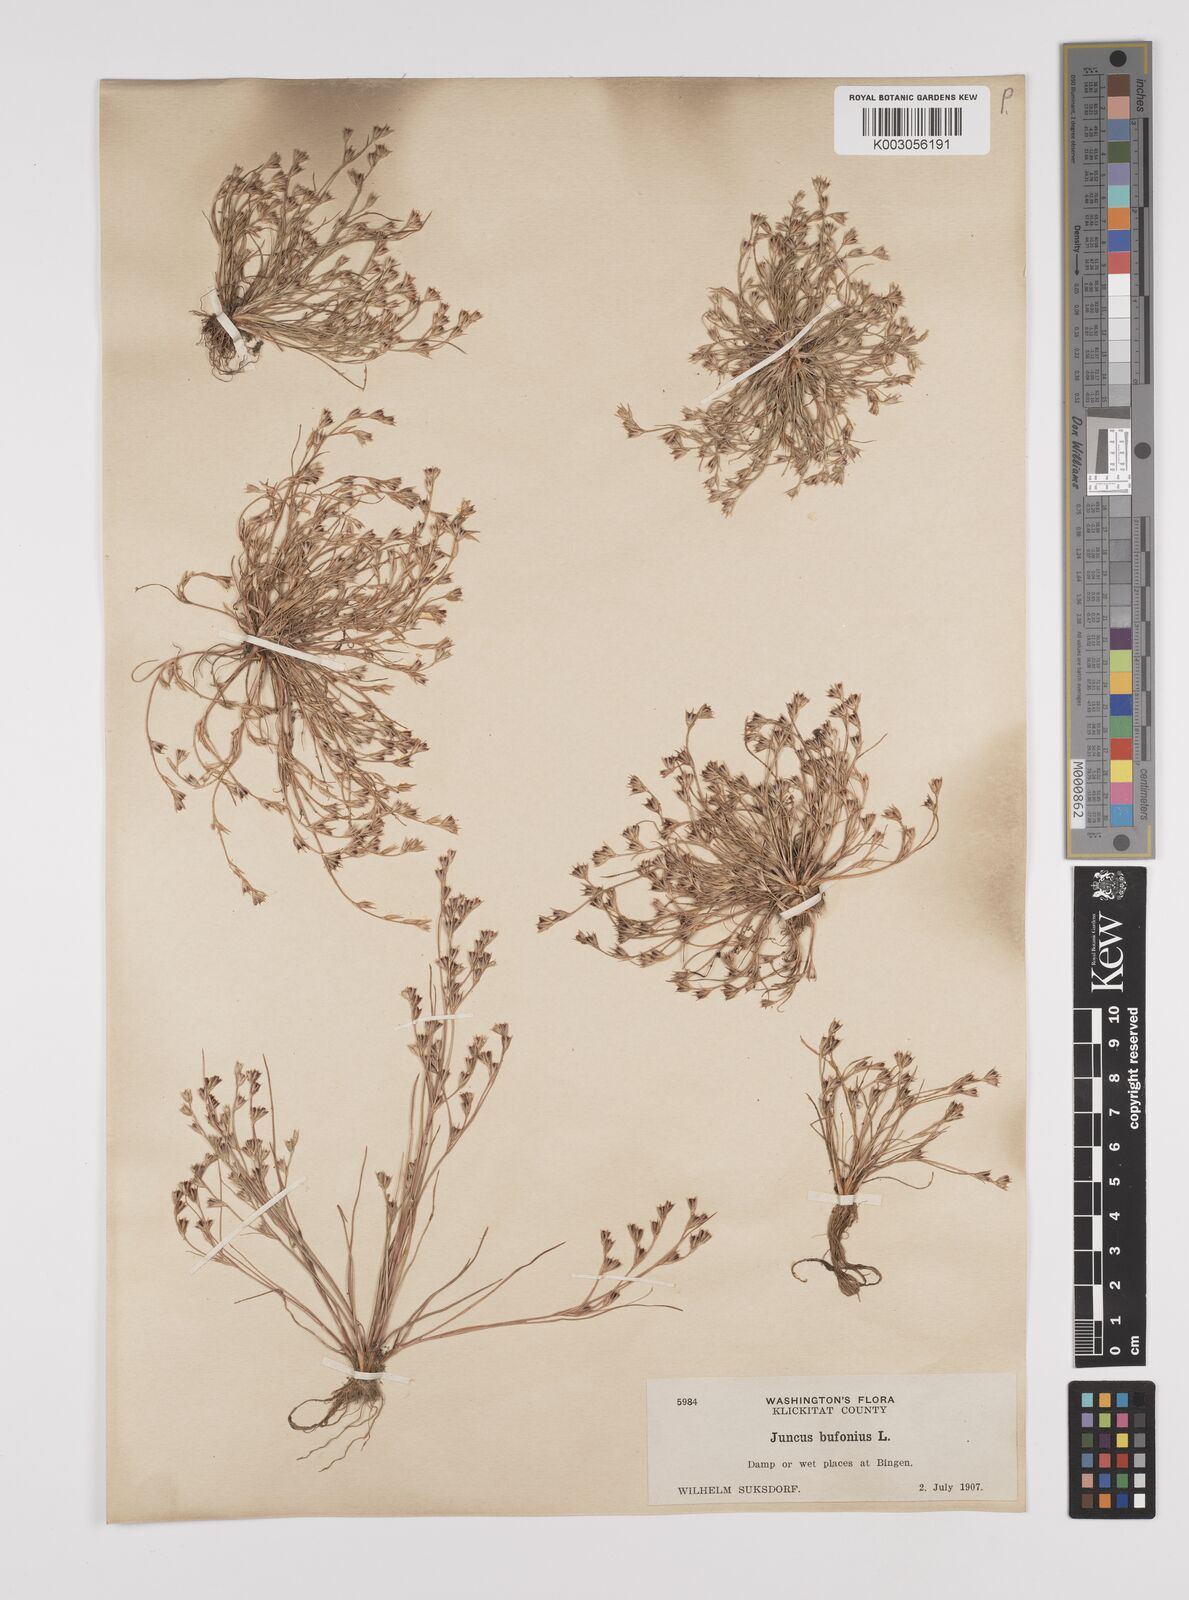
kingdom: Plantae
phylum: Tracheophyta
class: Liliopsida
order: Poales
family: Juncaceae
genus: Juncus
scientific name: Juncus bufonius
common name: Toad rush
